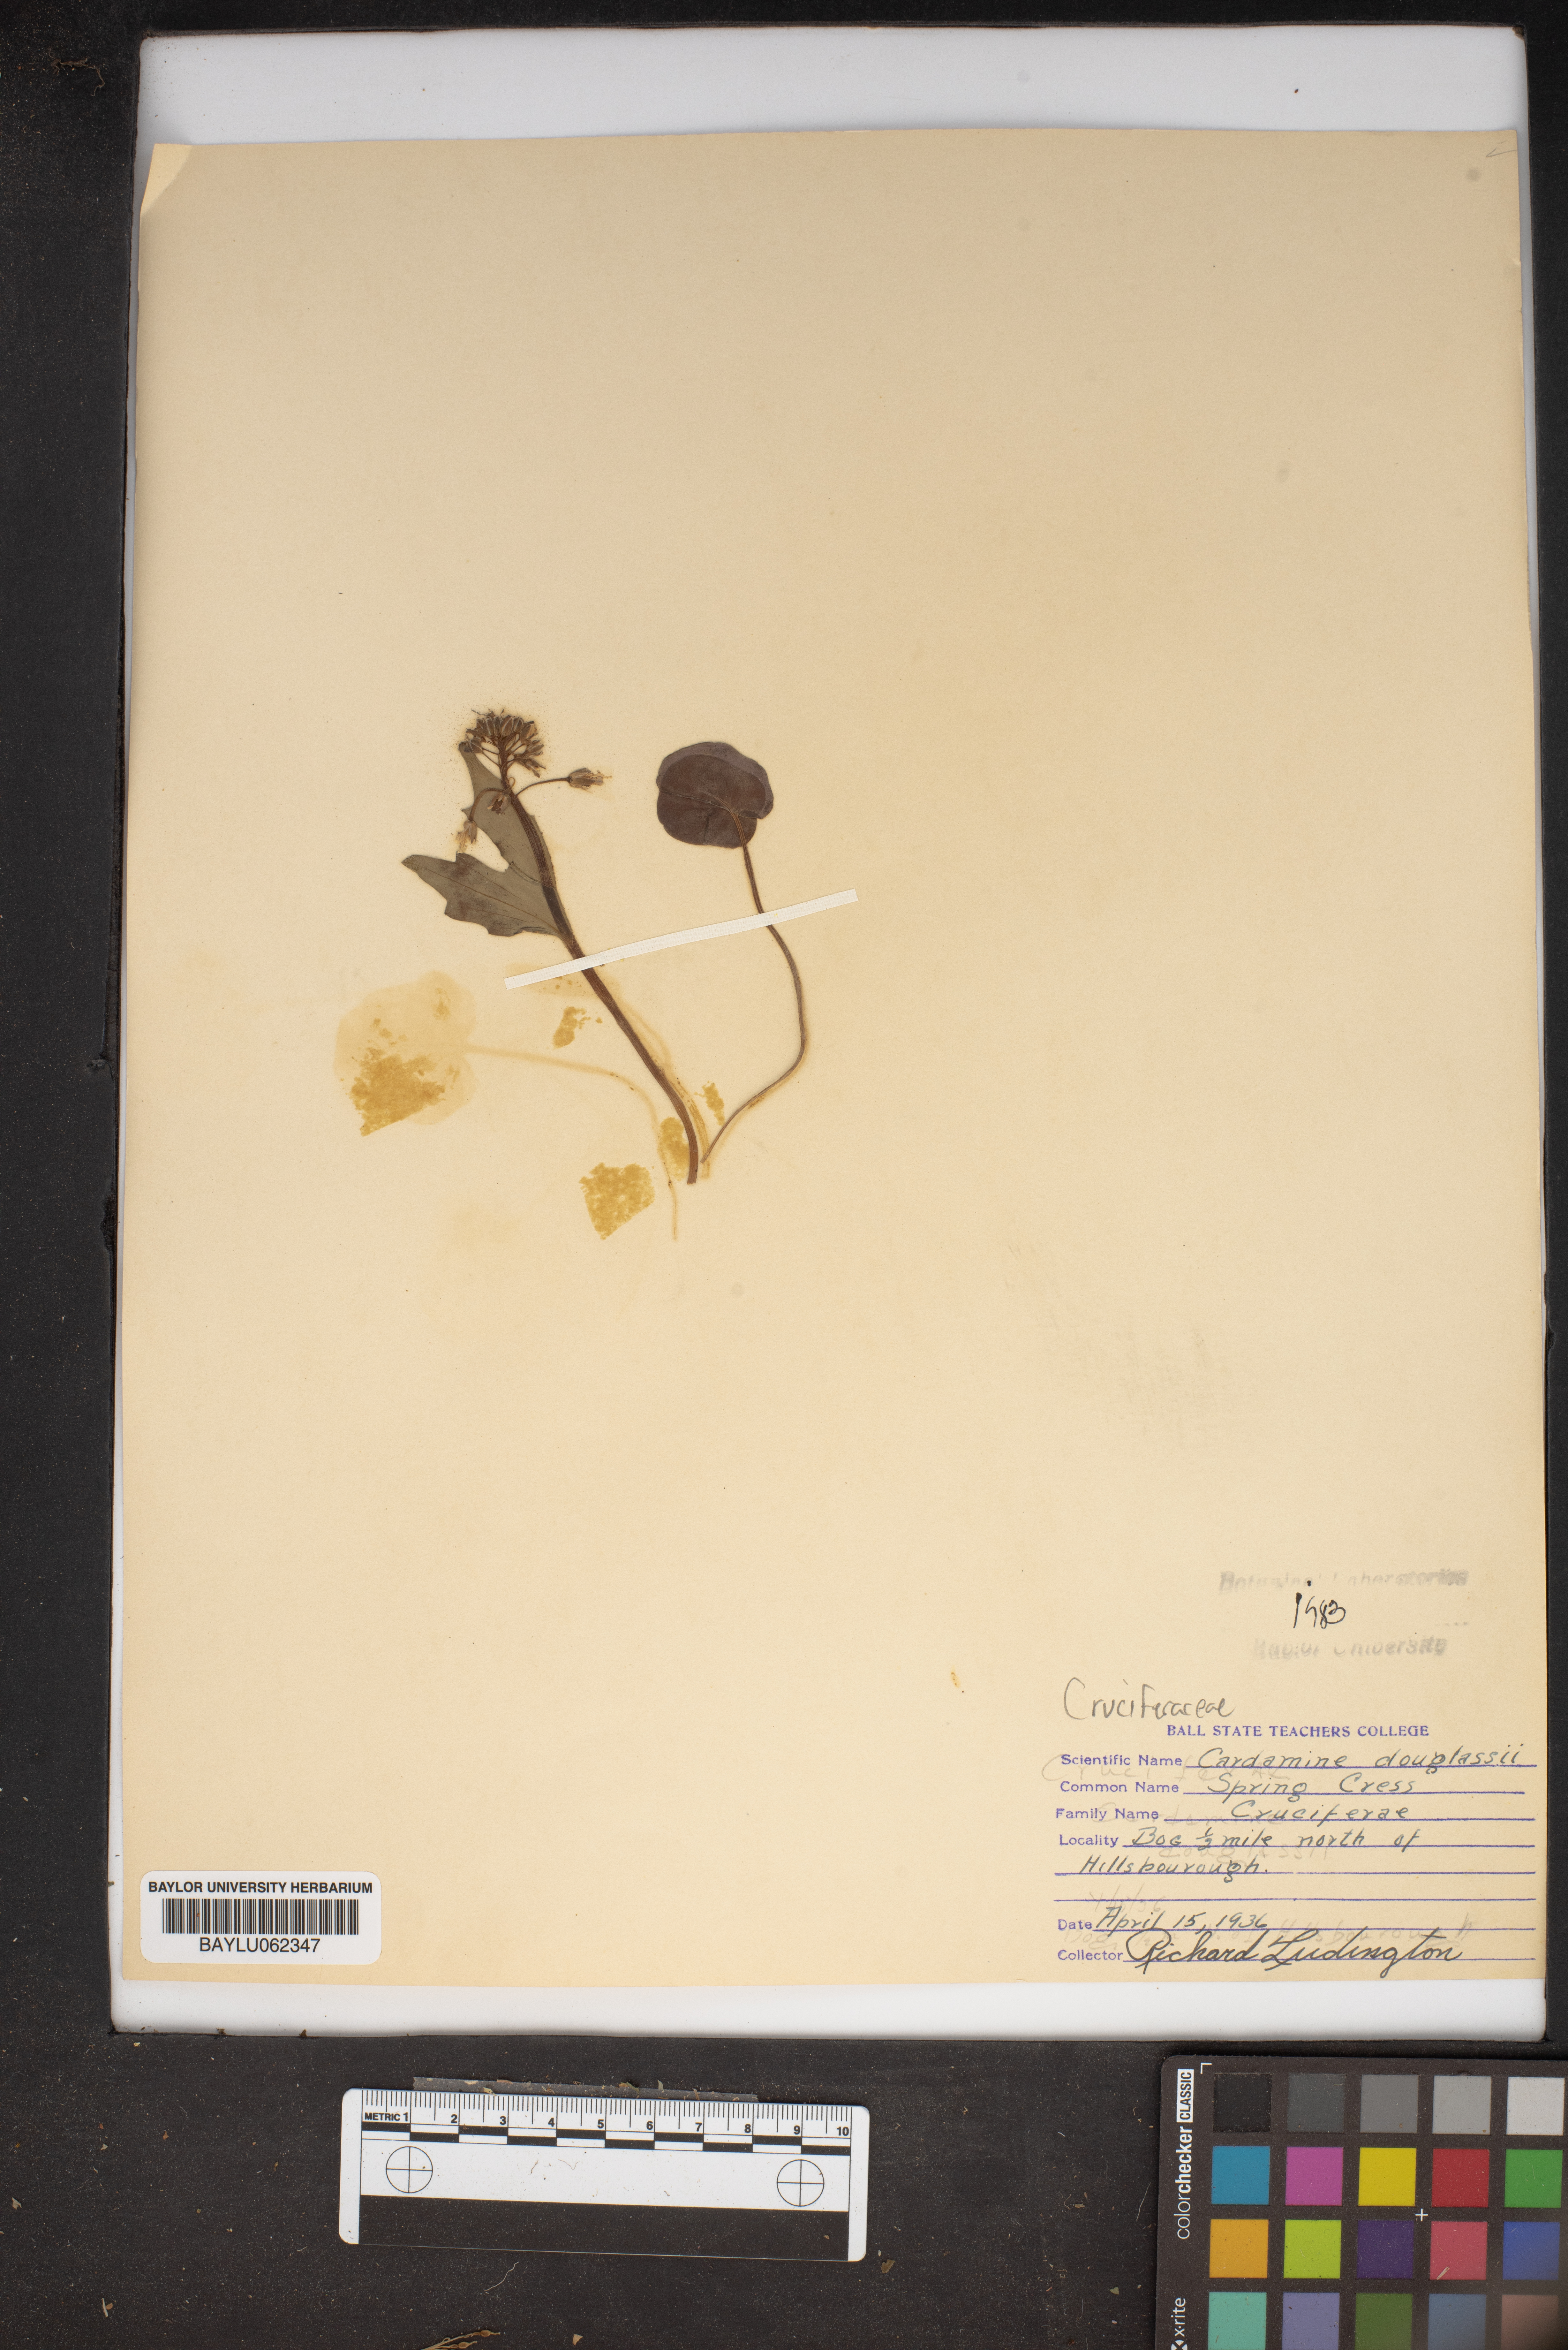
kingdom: Plantae
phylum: Tracheophyta
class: Magnoliopsida
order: Brassicales
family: Brassicaceae
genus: Cardamine
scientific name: Cardamine douglassii
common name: Purple cress
